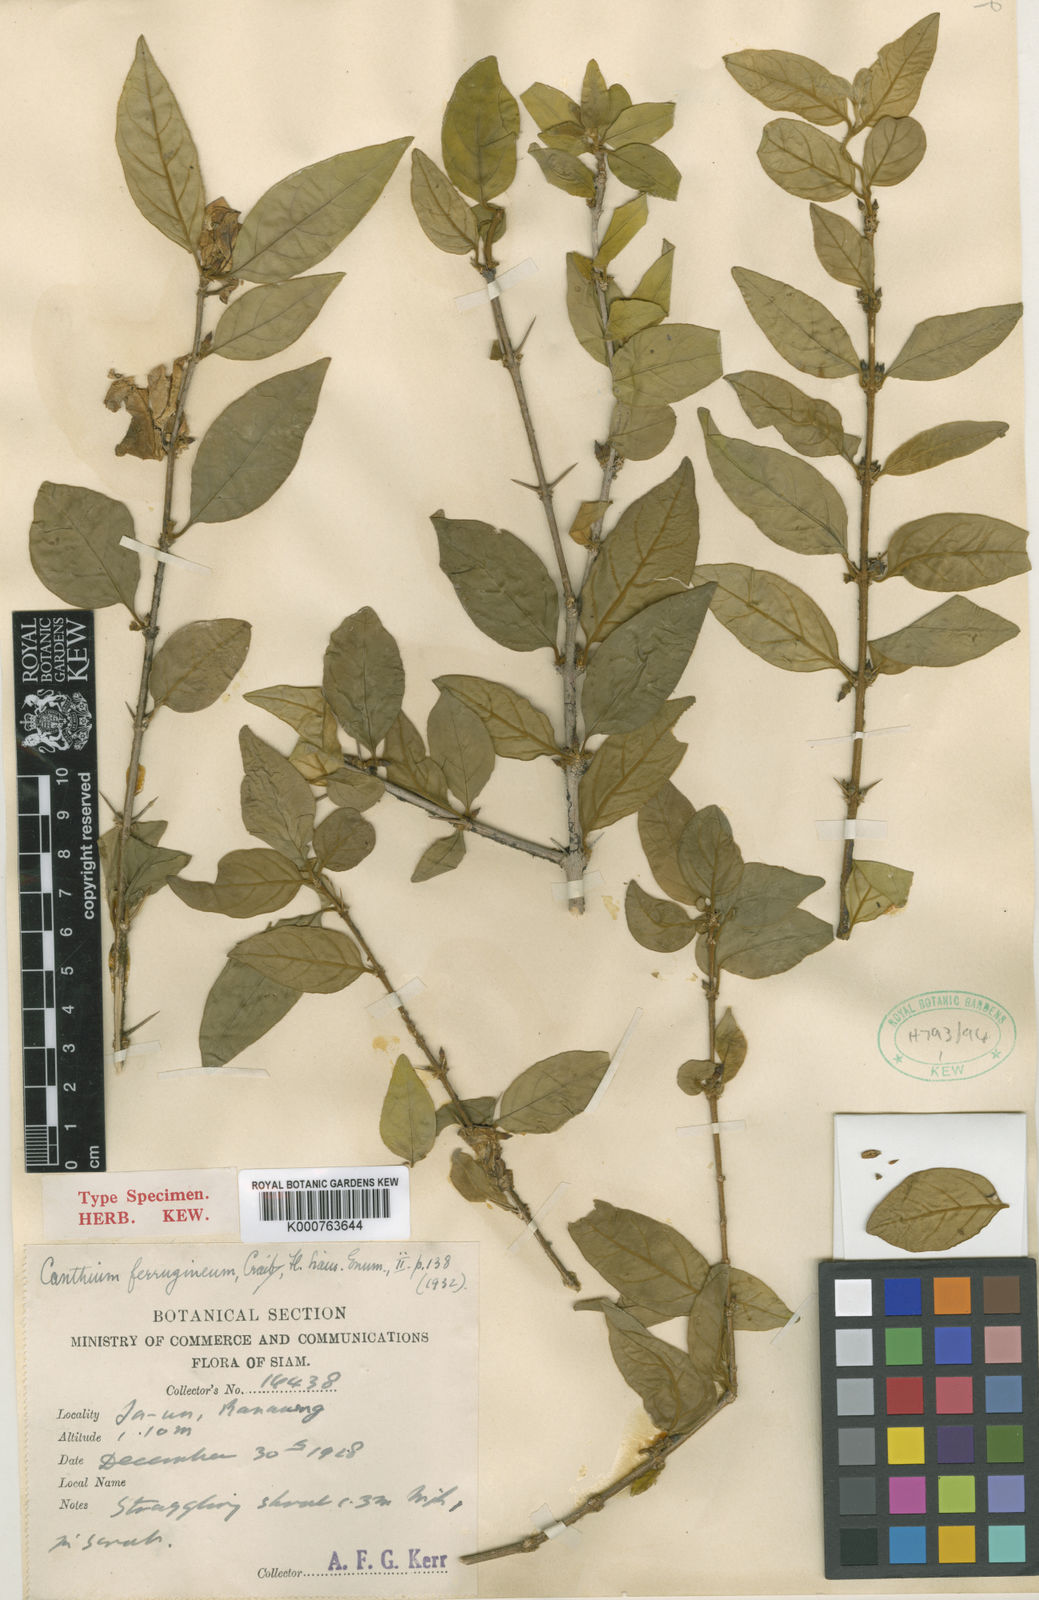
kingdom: Plantae
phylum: Tracheophyta
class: Magnoliopsida
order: Gentianales
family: Rubiaceae
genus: Canthium
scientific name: Canthium ferrugineum
